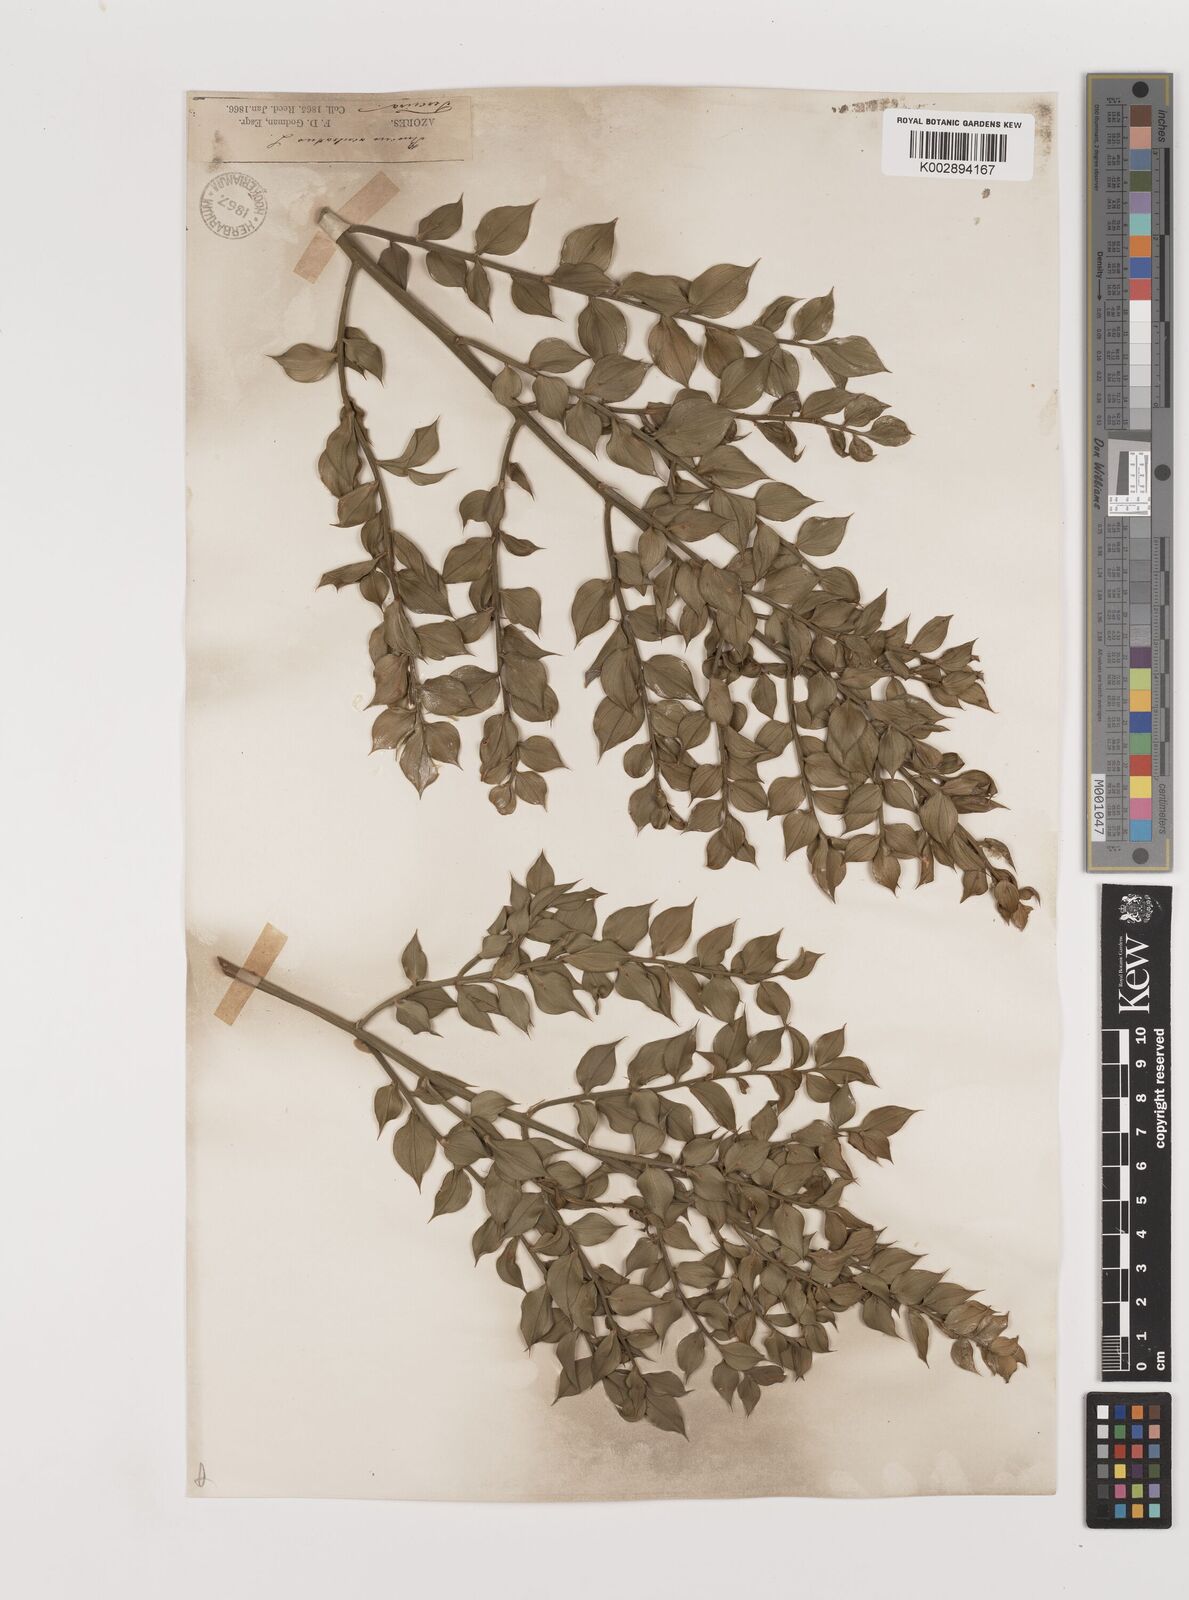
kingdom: Plantae
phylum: Tracheophyta
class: Liliopsida
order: Asparagales
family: Asparagaceae
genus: Ruscus
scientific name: Ruscus aculeatus
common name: Butcher's-broom
